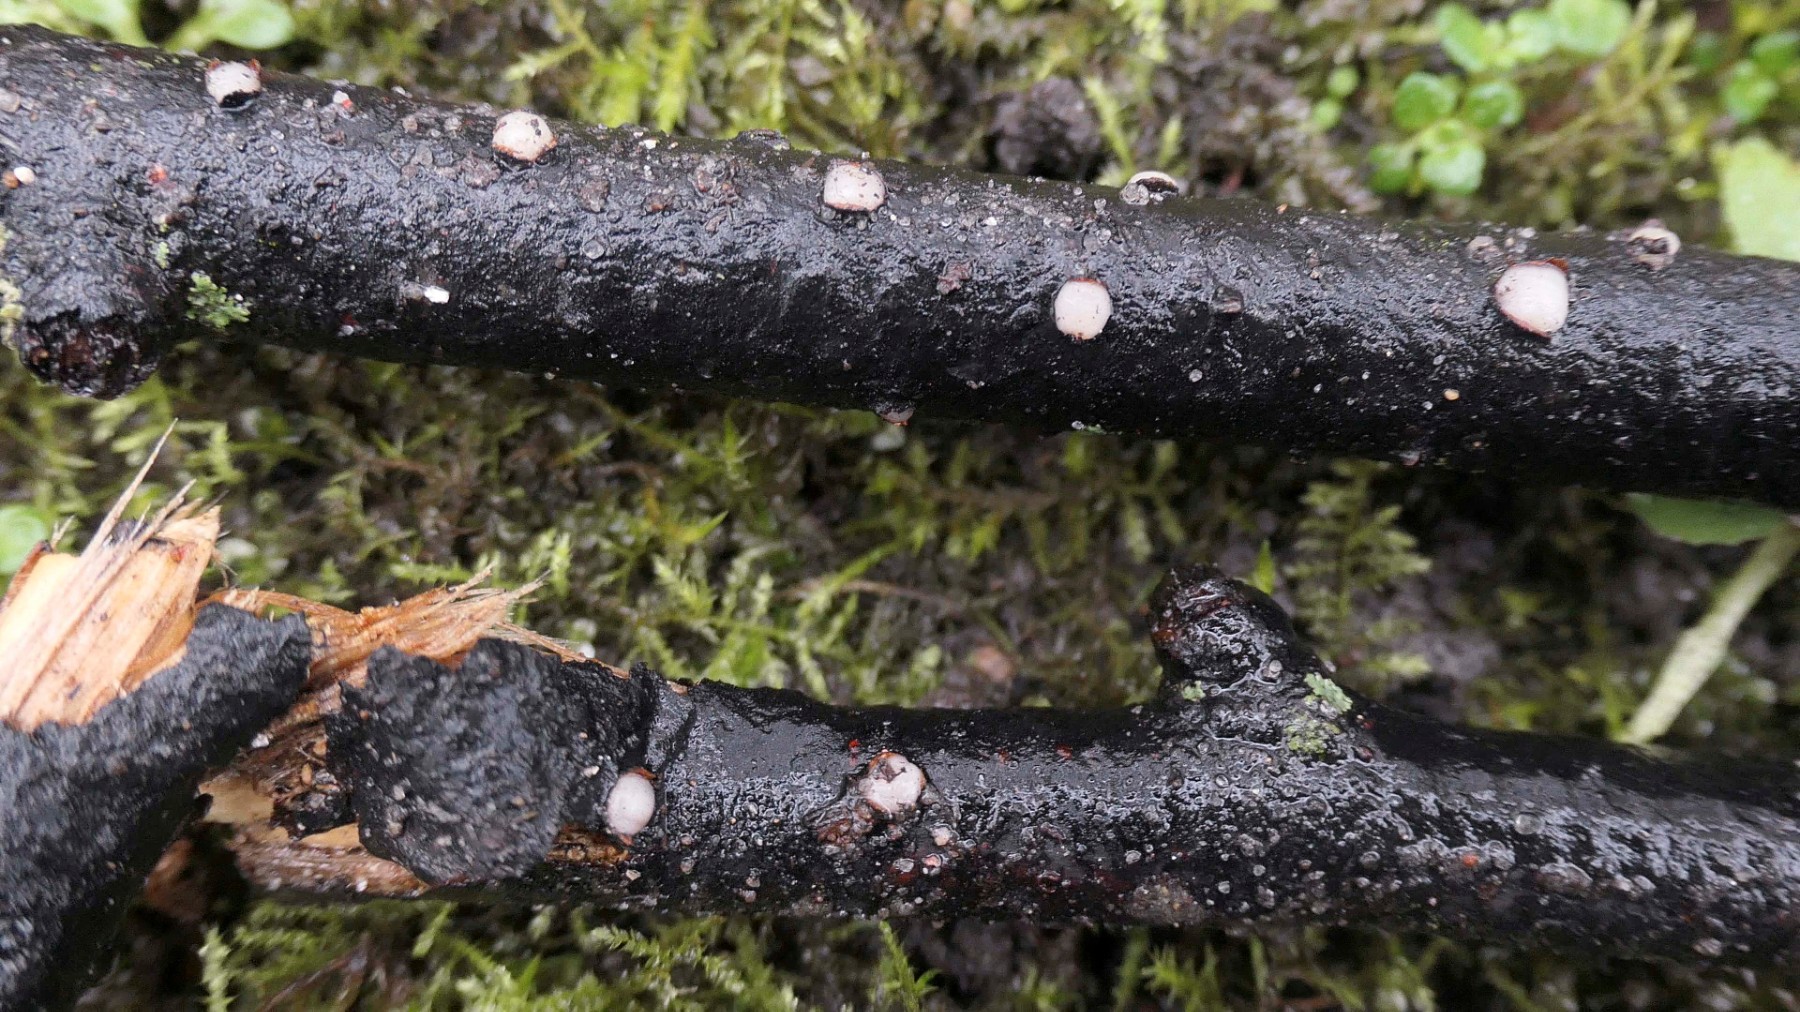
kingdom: Fungi
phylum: Basidiomycota
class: Pucciniomycetes
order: Platygloeales
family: Platygloeaceae
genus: Platygloea
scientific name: Platygloea disciformis
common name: linde-slimklat
